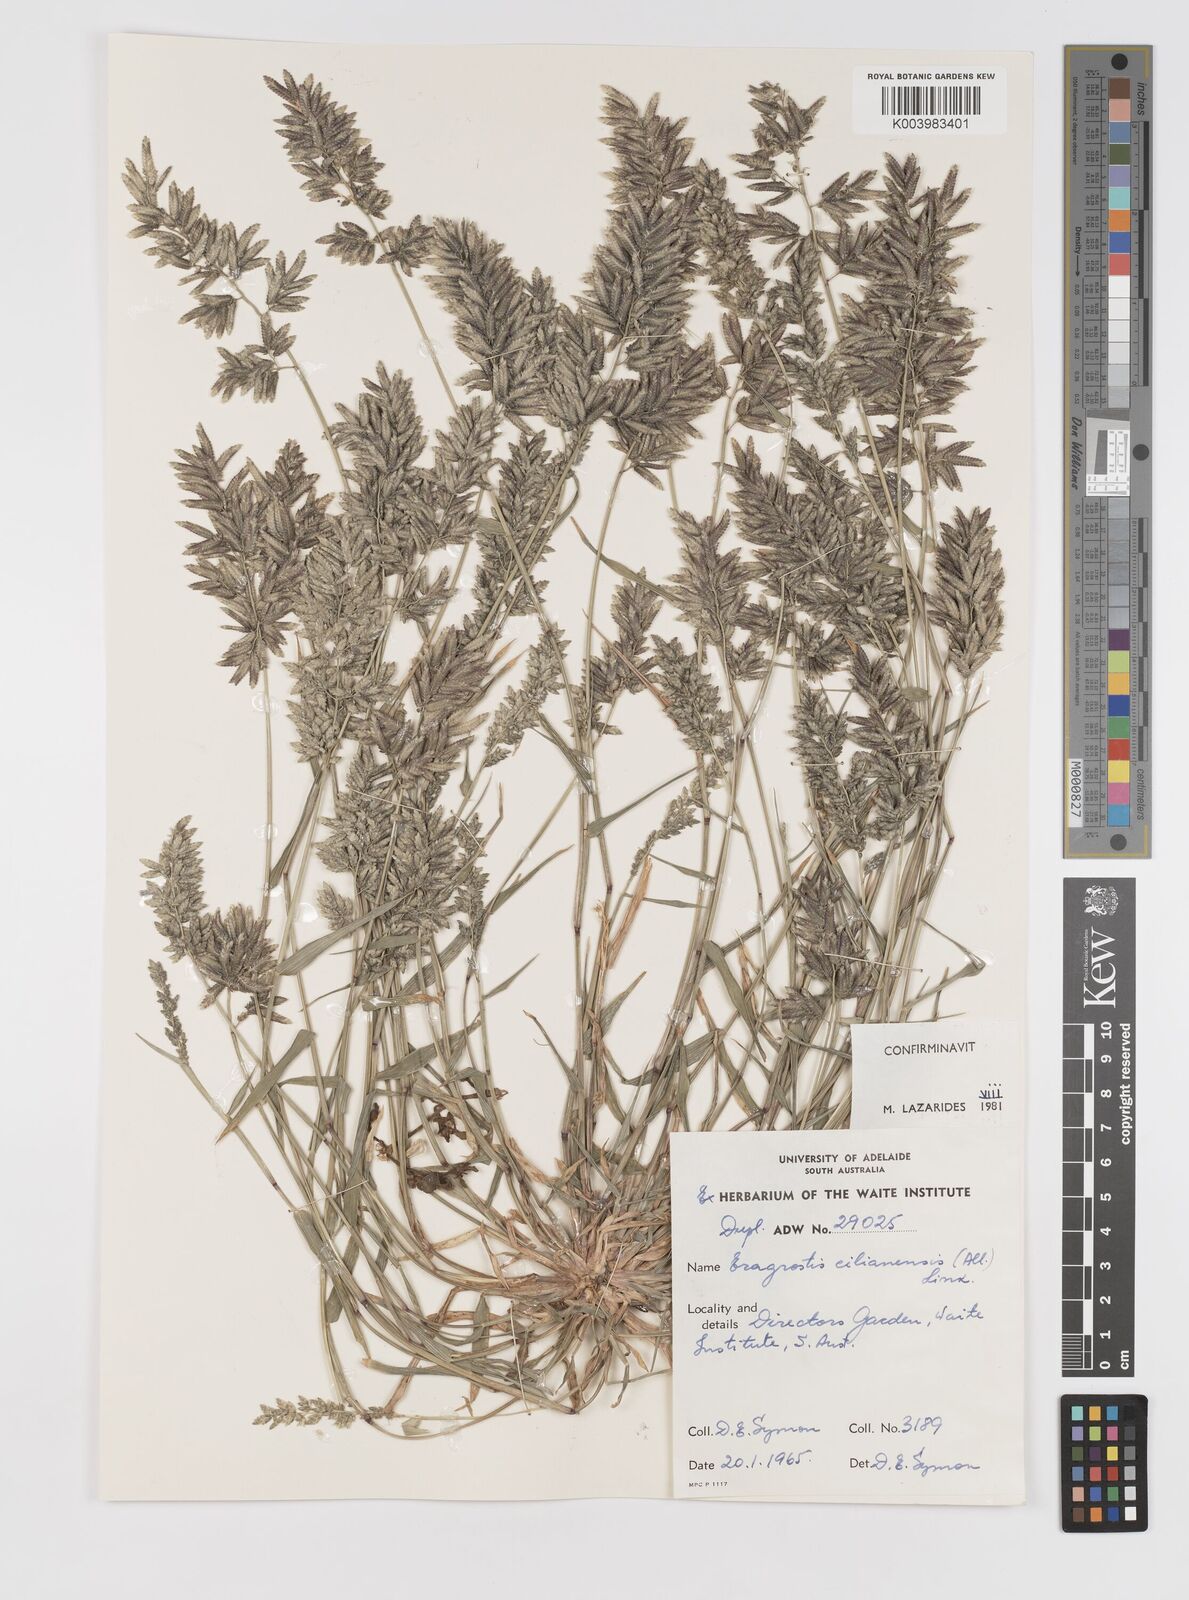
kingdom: Plantae
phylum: Tracheophyta
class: Liliopsida
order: Poales
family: Poaceae
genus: Eragrostis
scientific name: Eragrostis cilianensis
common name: Stinkgrass
